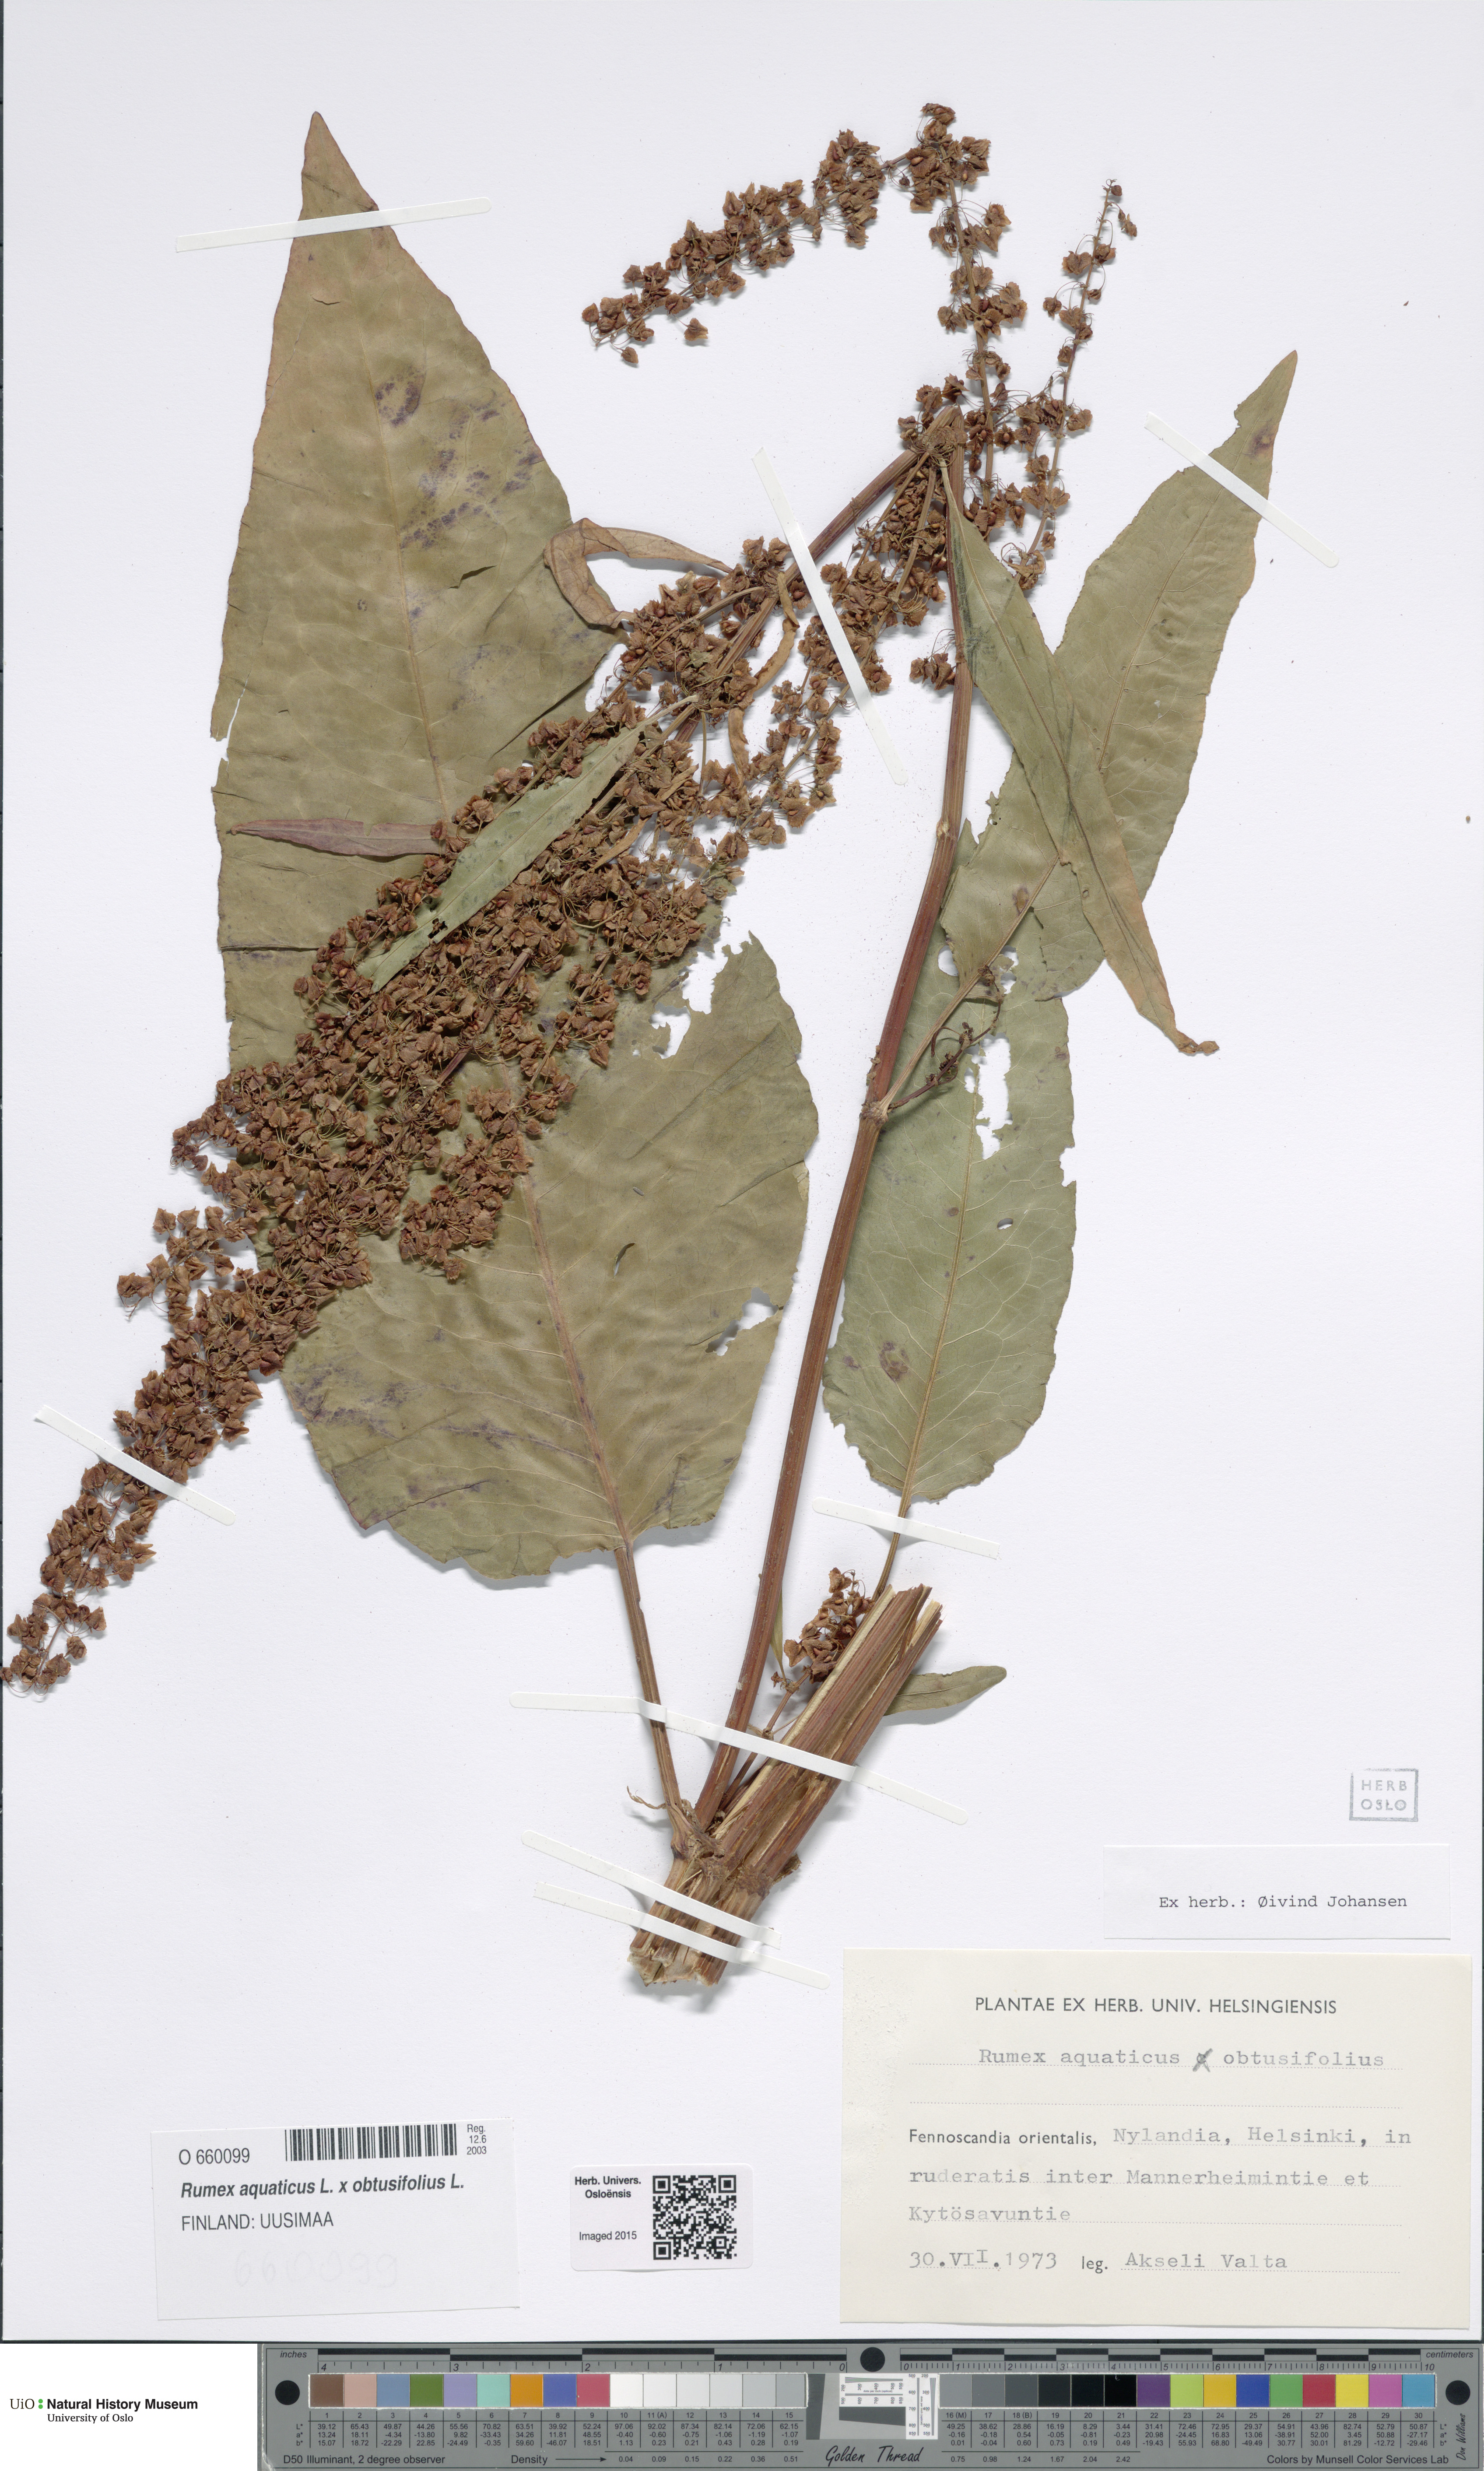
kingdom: Plantae
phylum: Tracheophyta
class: Magnoliopsida
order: Caryophyllales
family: Polygonaceae
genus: Rumex
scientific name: Rumex
